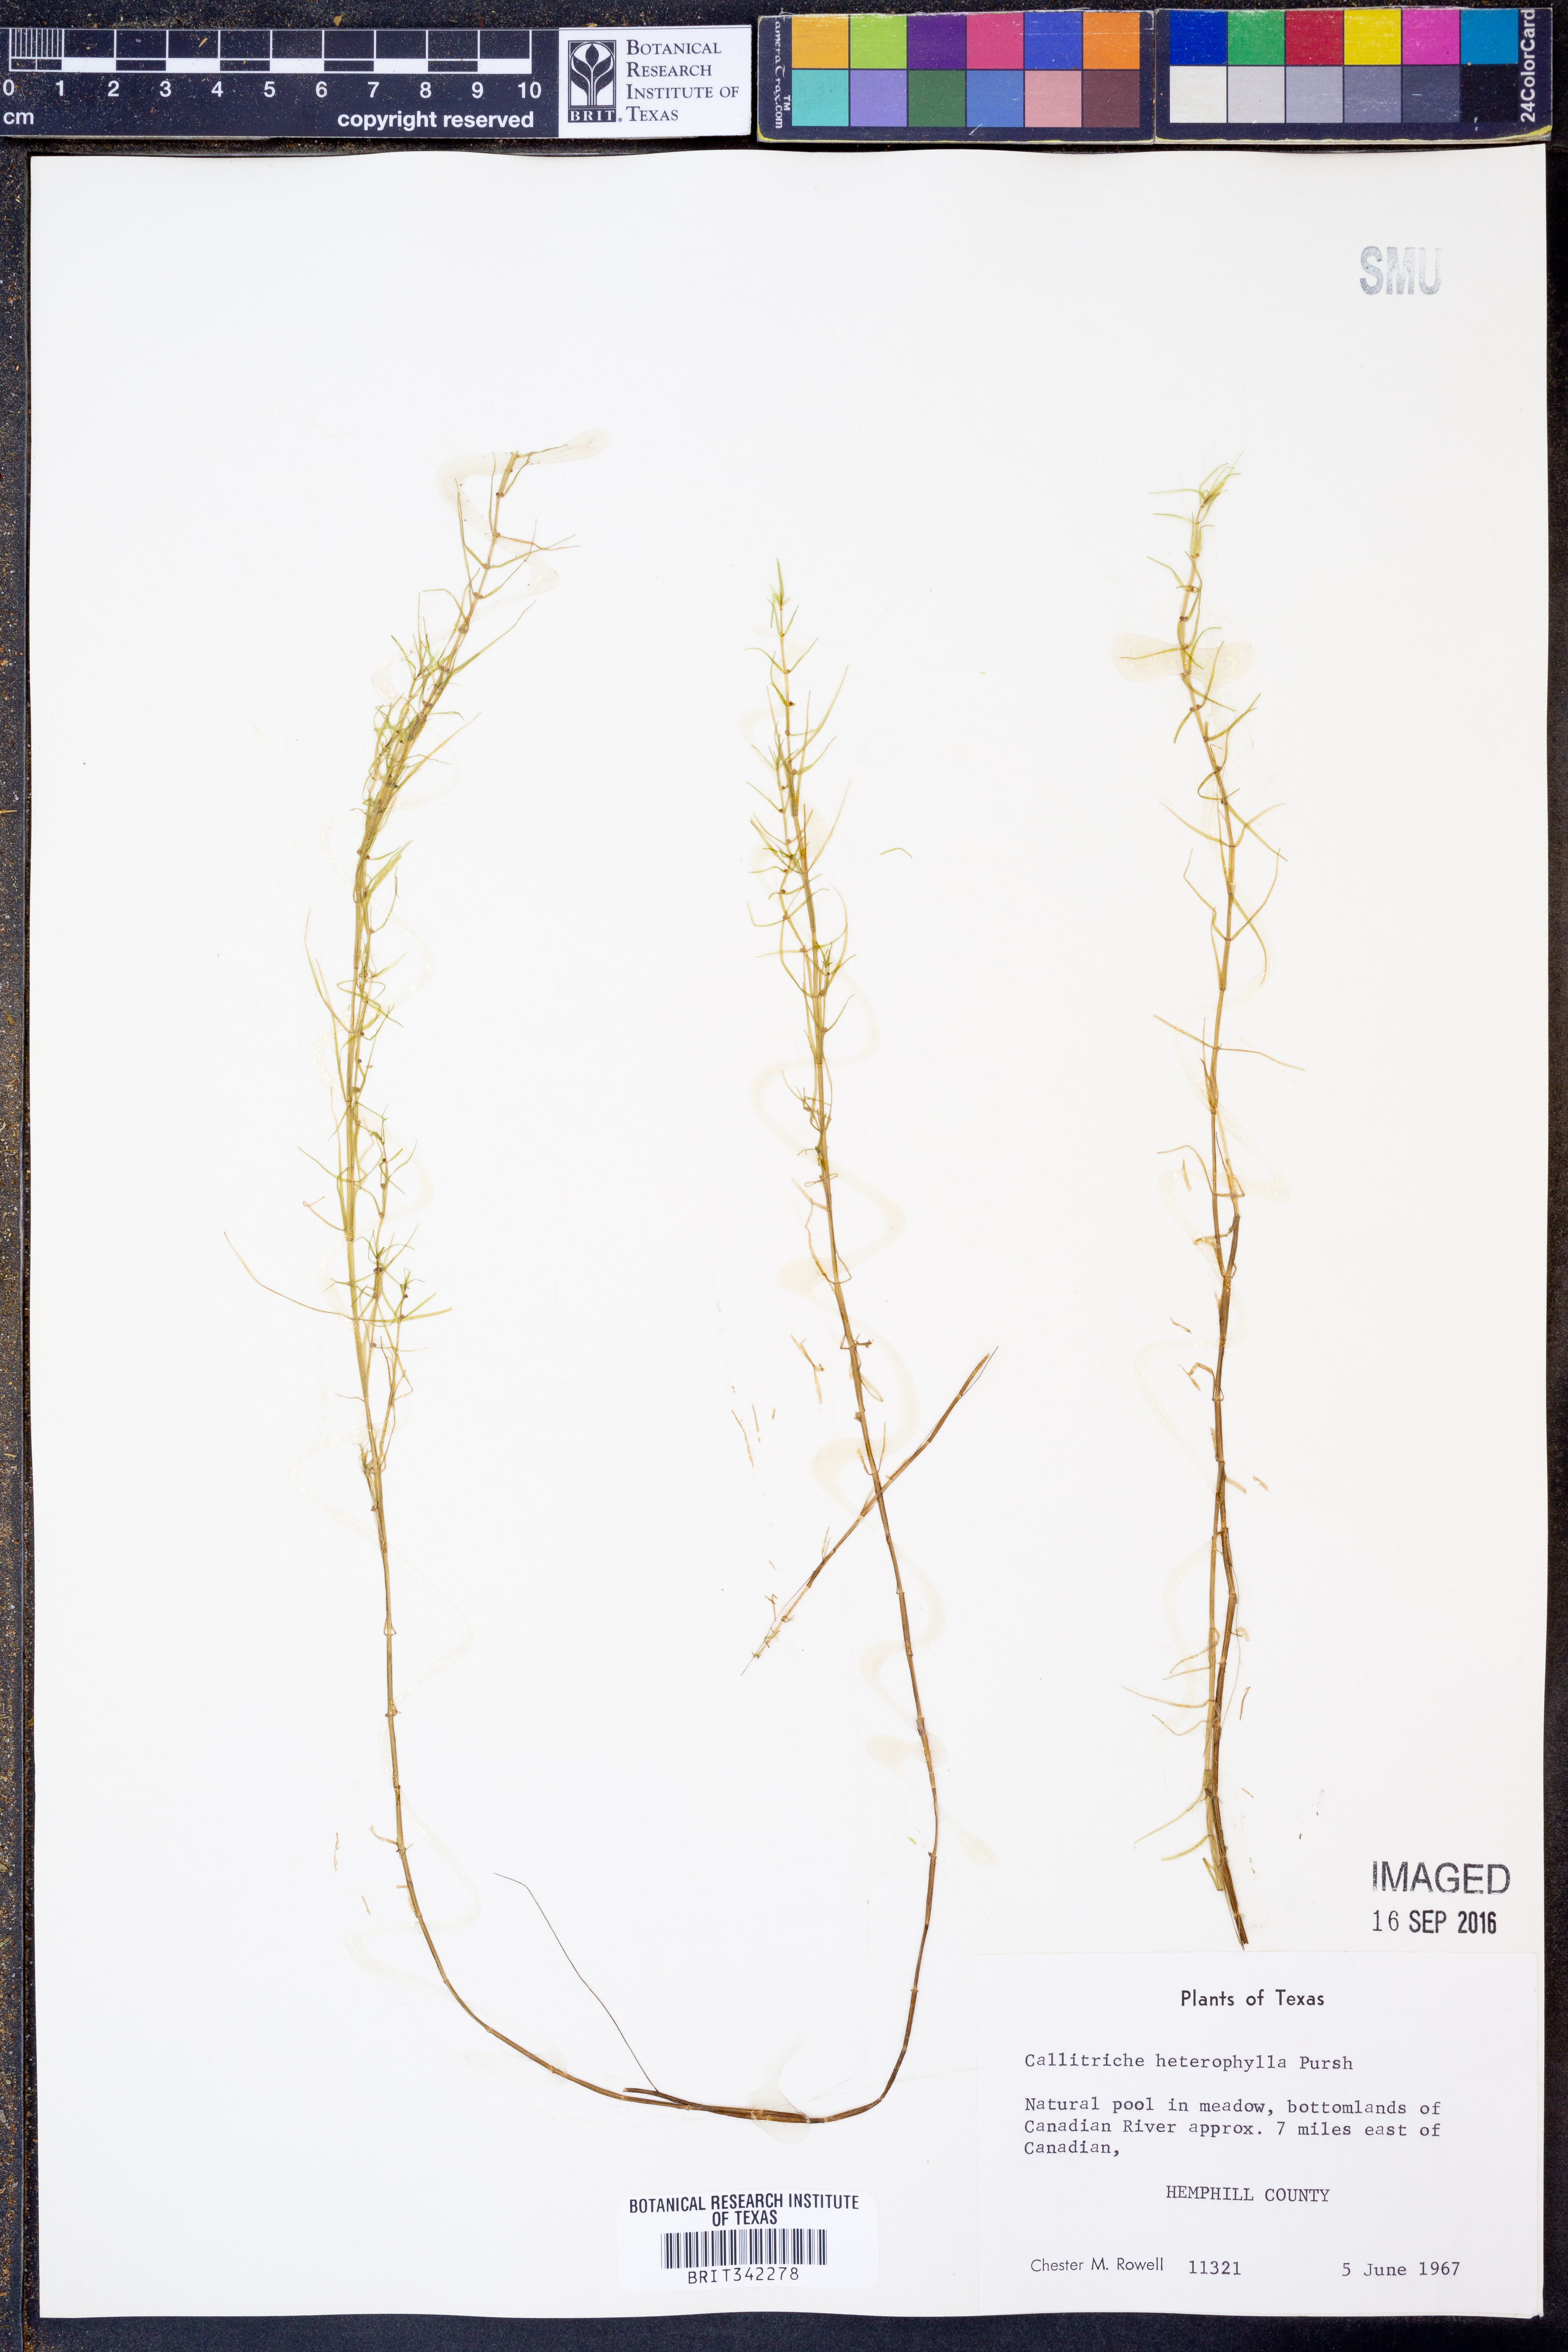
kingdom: Plantae
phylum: Tracheophyta
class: Magnoliopsida
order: Lamiales
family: Plantaginaceae
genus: Callitriche
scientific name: Callitriche heterophylla
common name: Two-headed water-starwort
